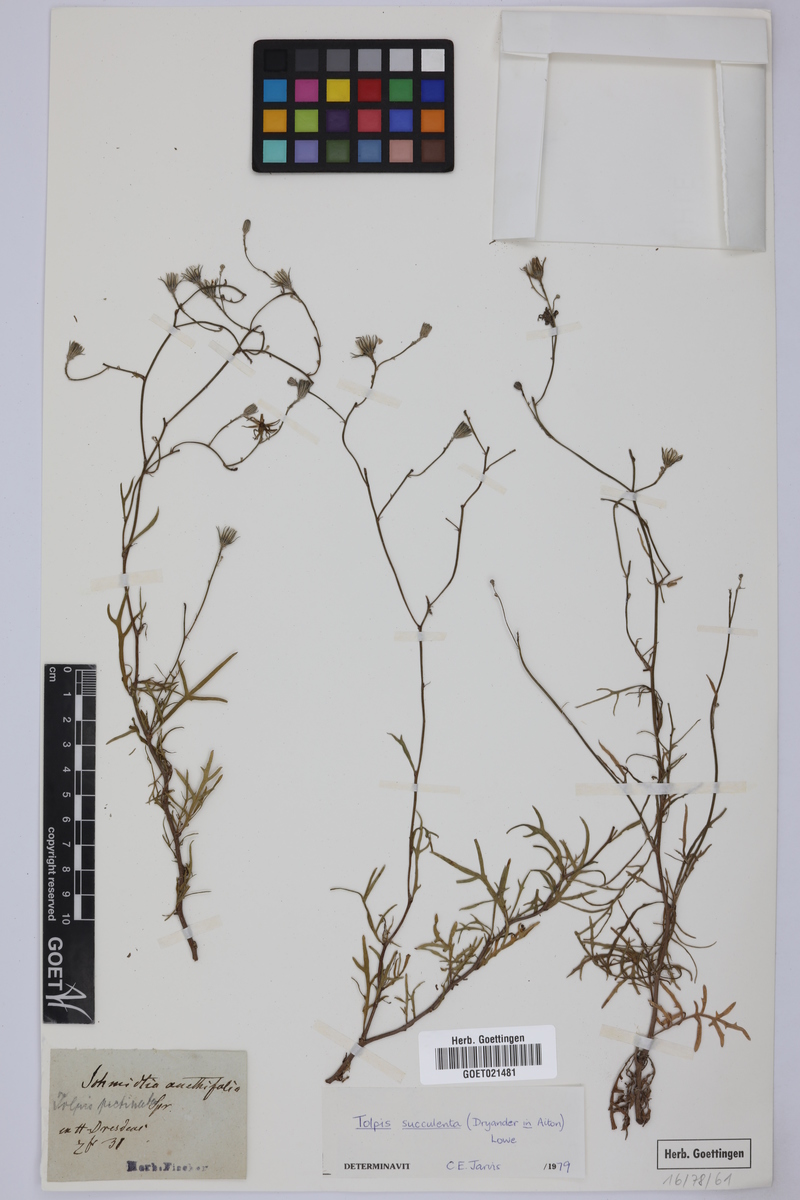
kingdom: Plantae
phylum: Tracheophyta
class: Magnoliopsida
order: Asterales
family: Asteraceae
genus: Tolpis
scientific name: Tolpis succulenta
